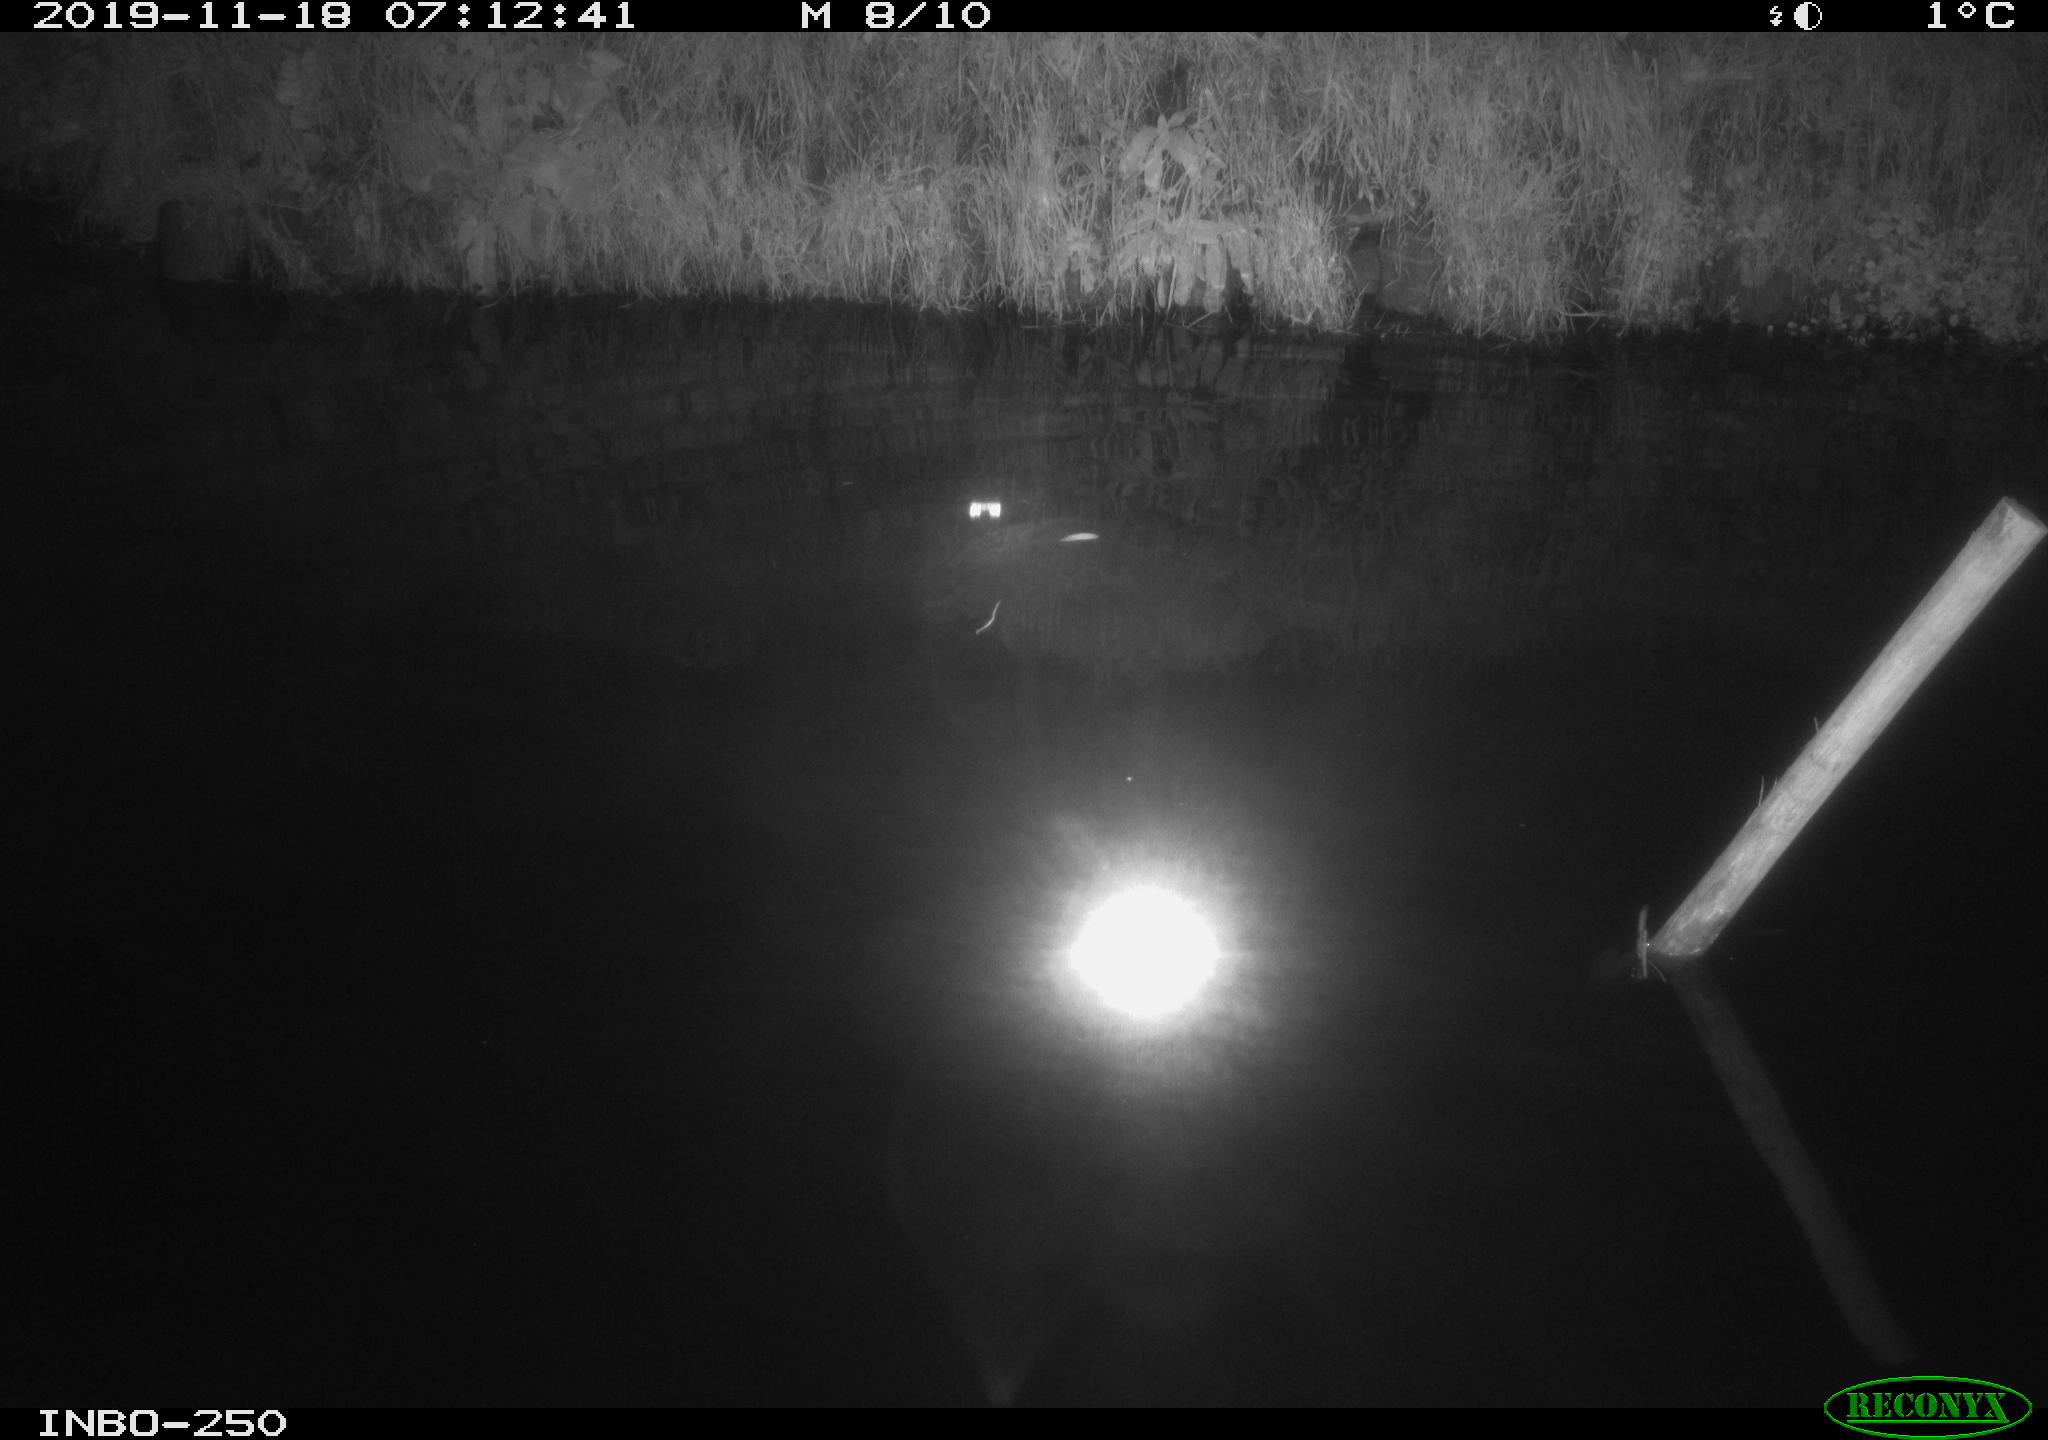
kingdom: Animalia
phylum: Chordata
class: Aves
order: Anseriformes
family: Anatidae
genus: Anas
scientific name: Anas platyrhynchos
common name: Mallard
